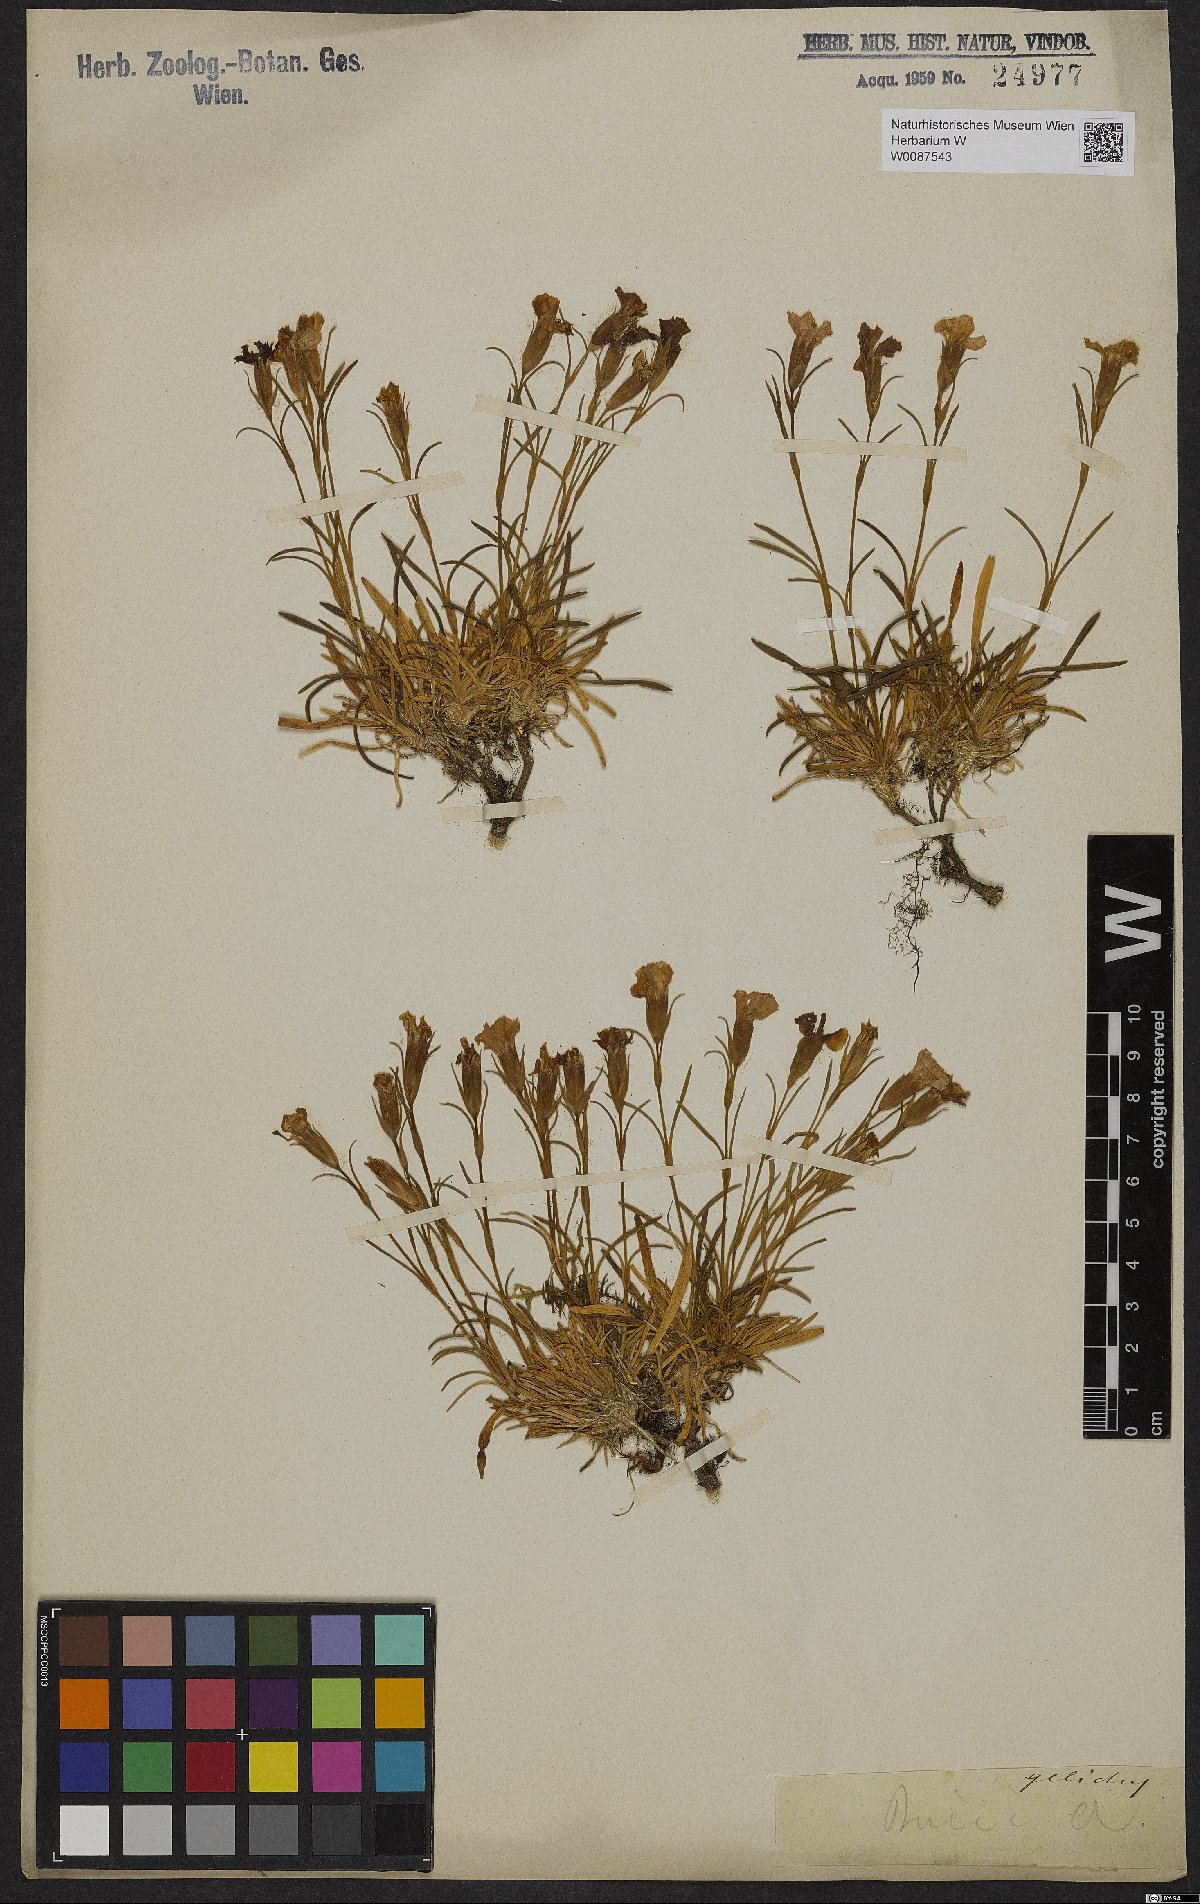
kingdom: Plantae
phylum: Tracheophyta
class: Magnoliopsida
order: Caryophyllales
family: Caryophyllaceae
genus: Dianthus
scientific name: Dianthus
